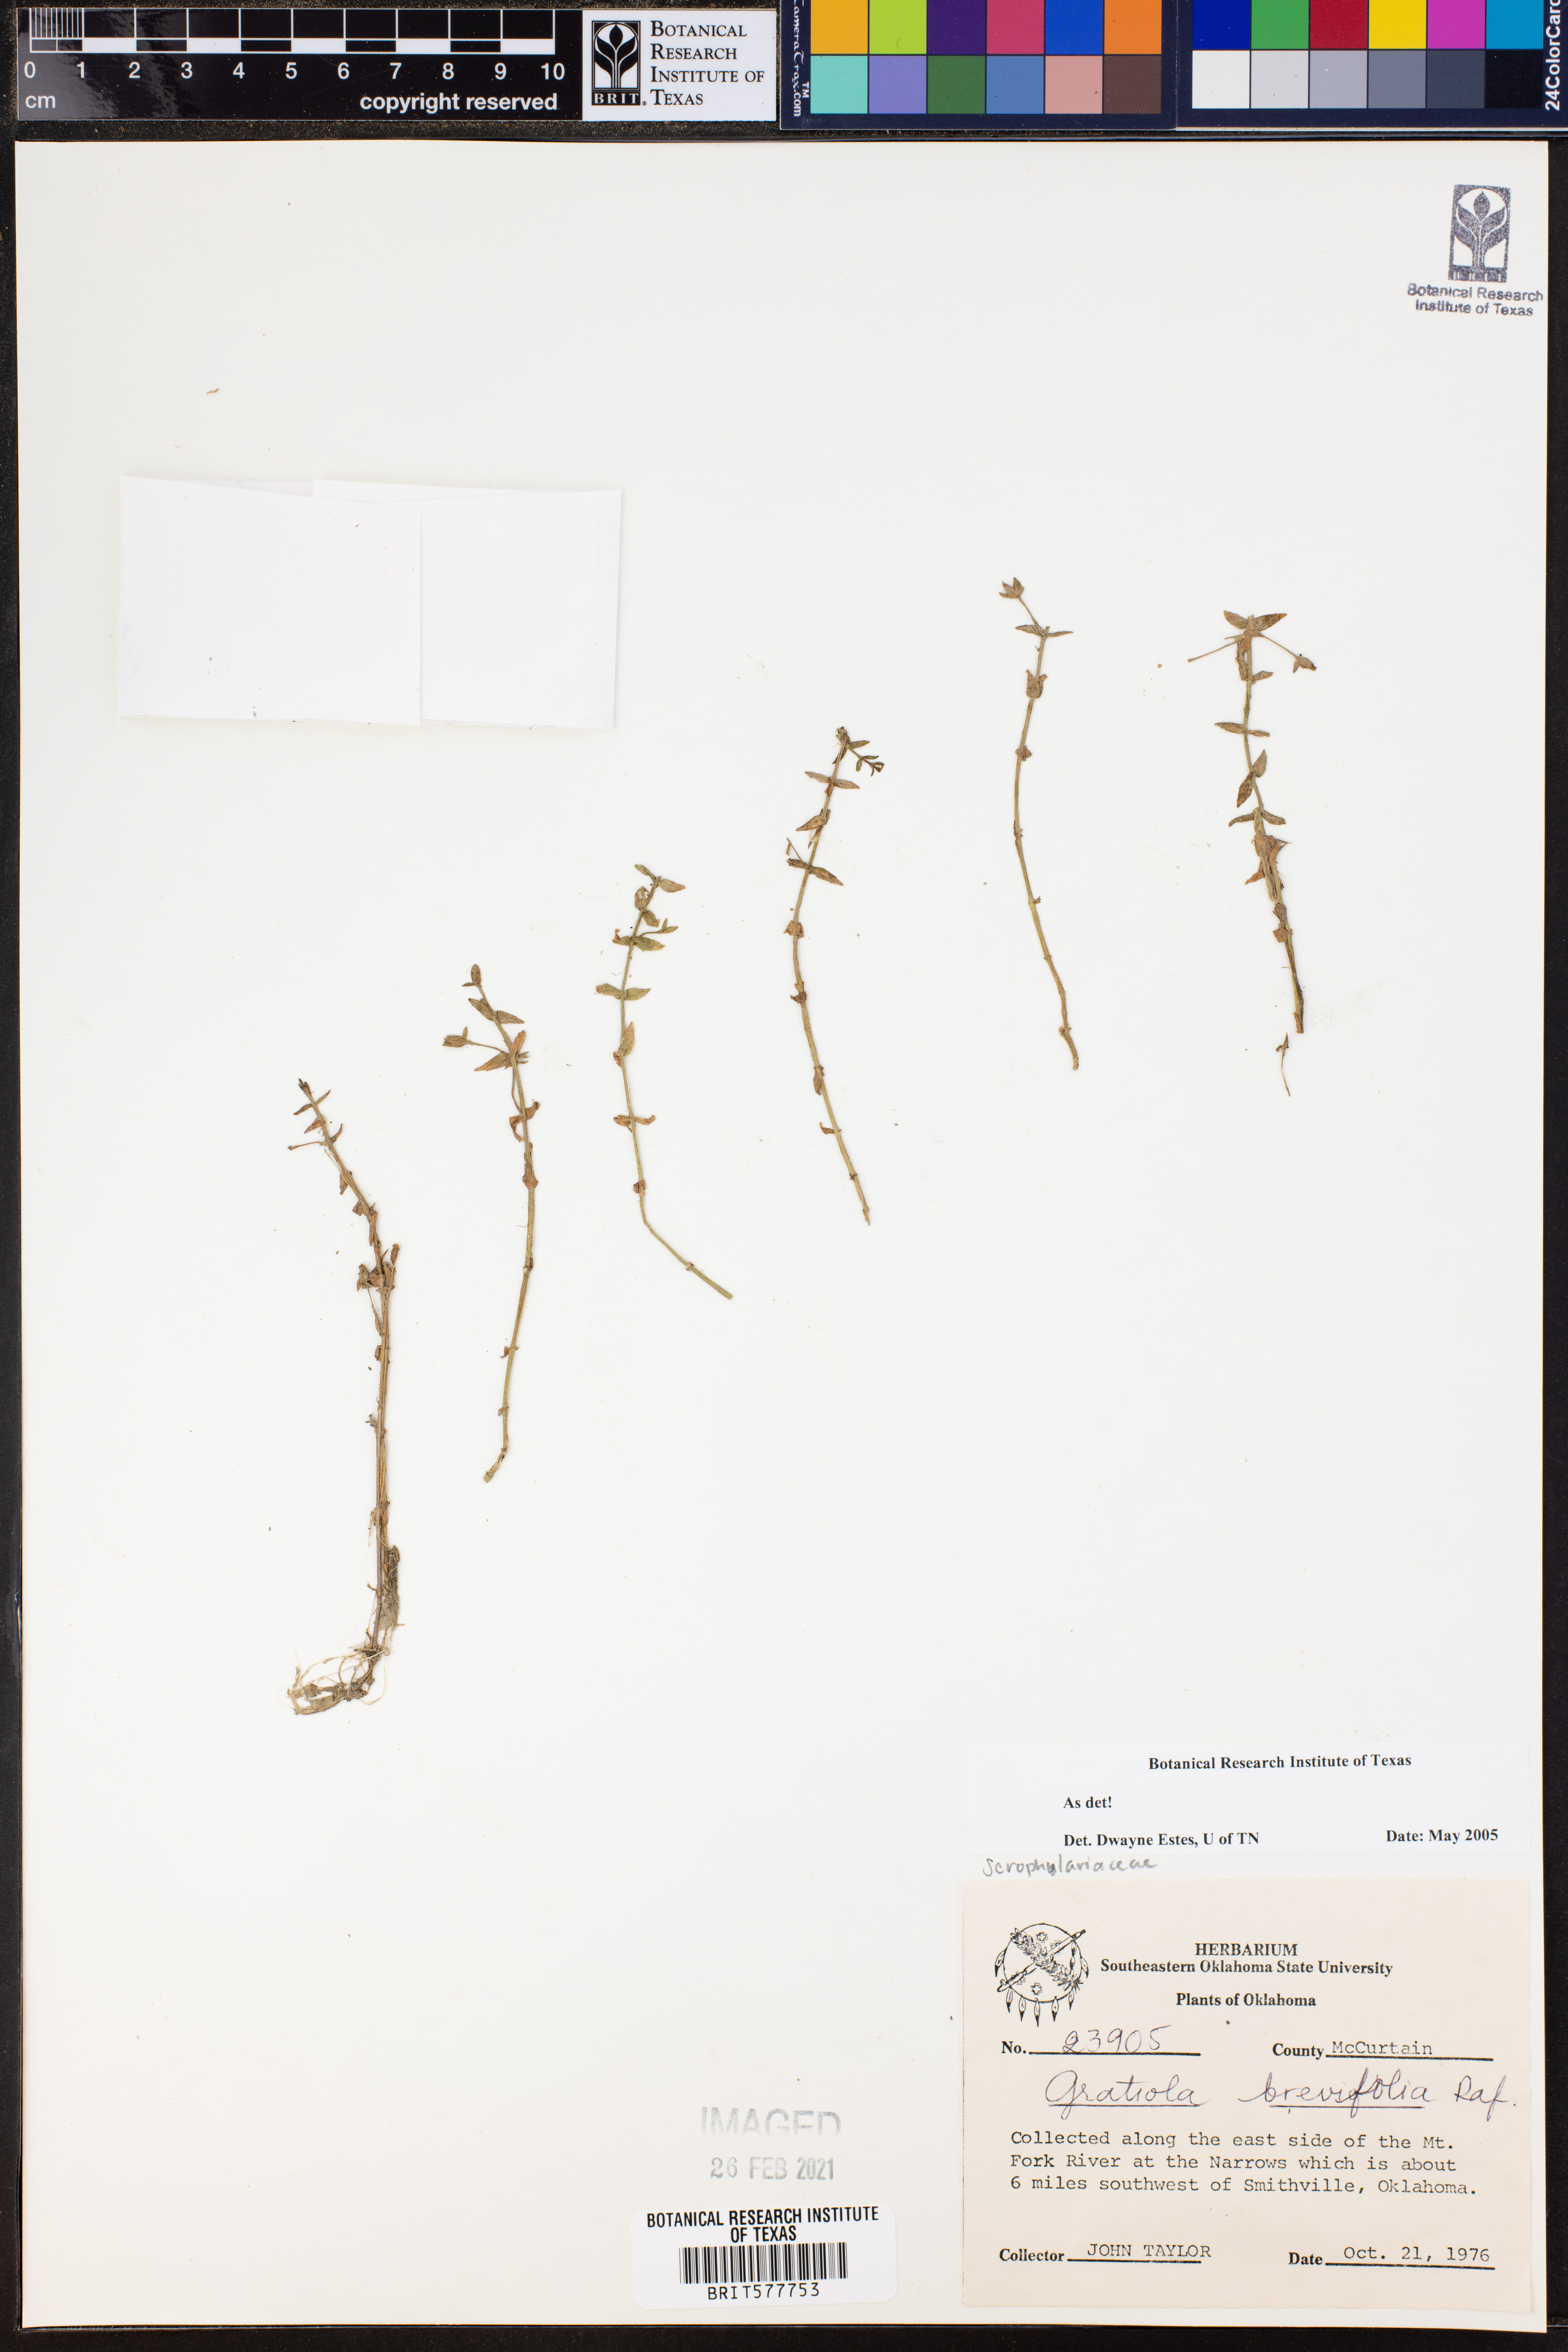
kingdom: Plantae
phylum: Tracheophyta
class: Magnoliopsida
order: Lamiales
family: Plantaginaceae
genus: Gratiola
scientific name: Gratiola brevifolia
